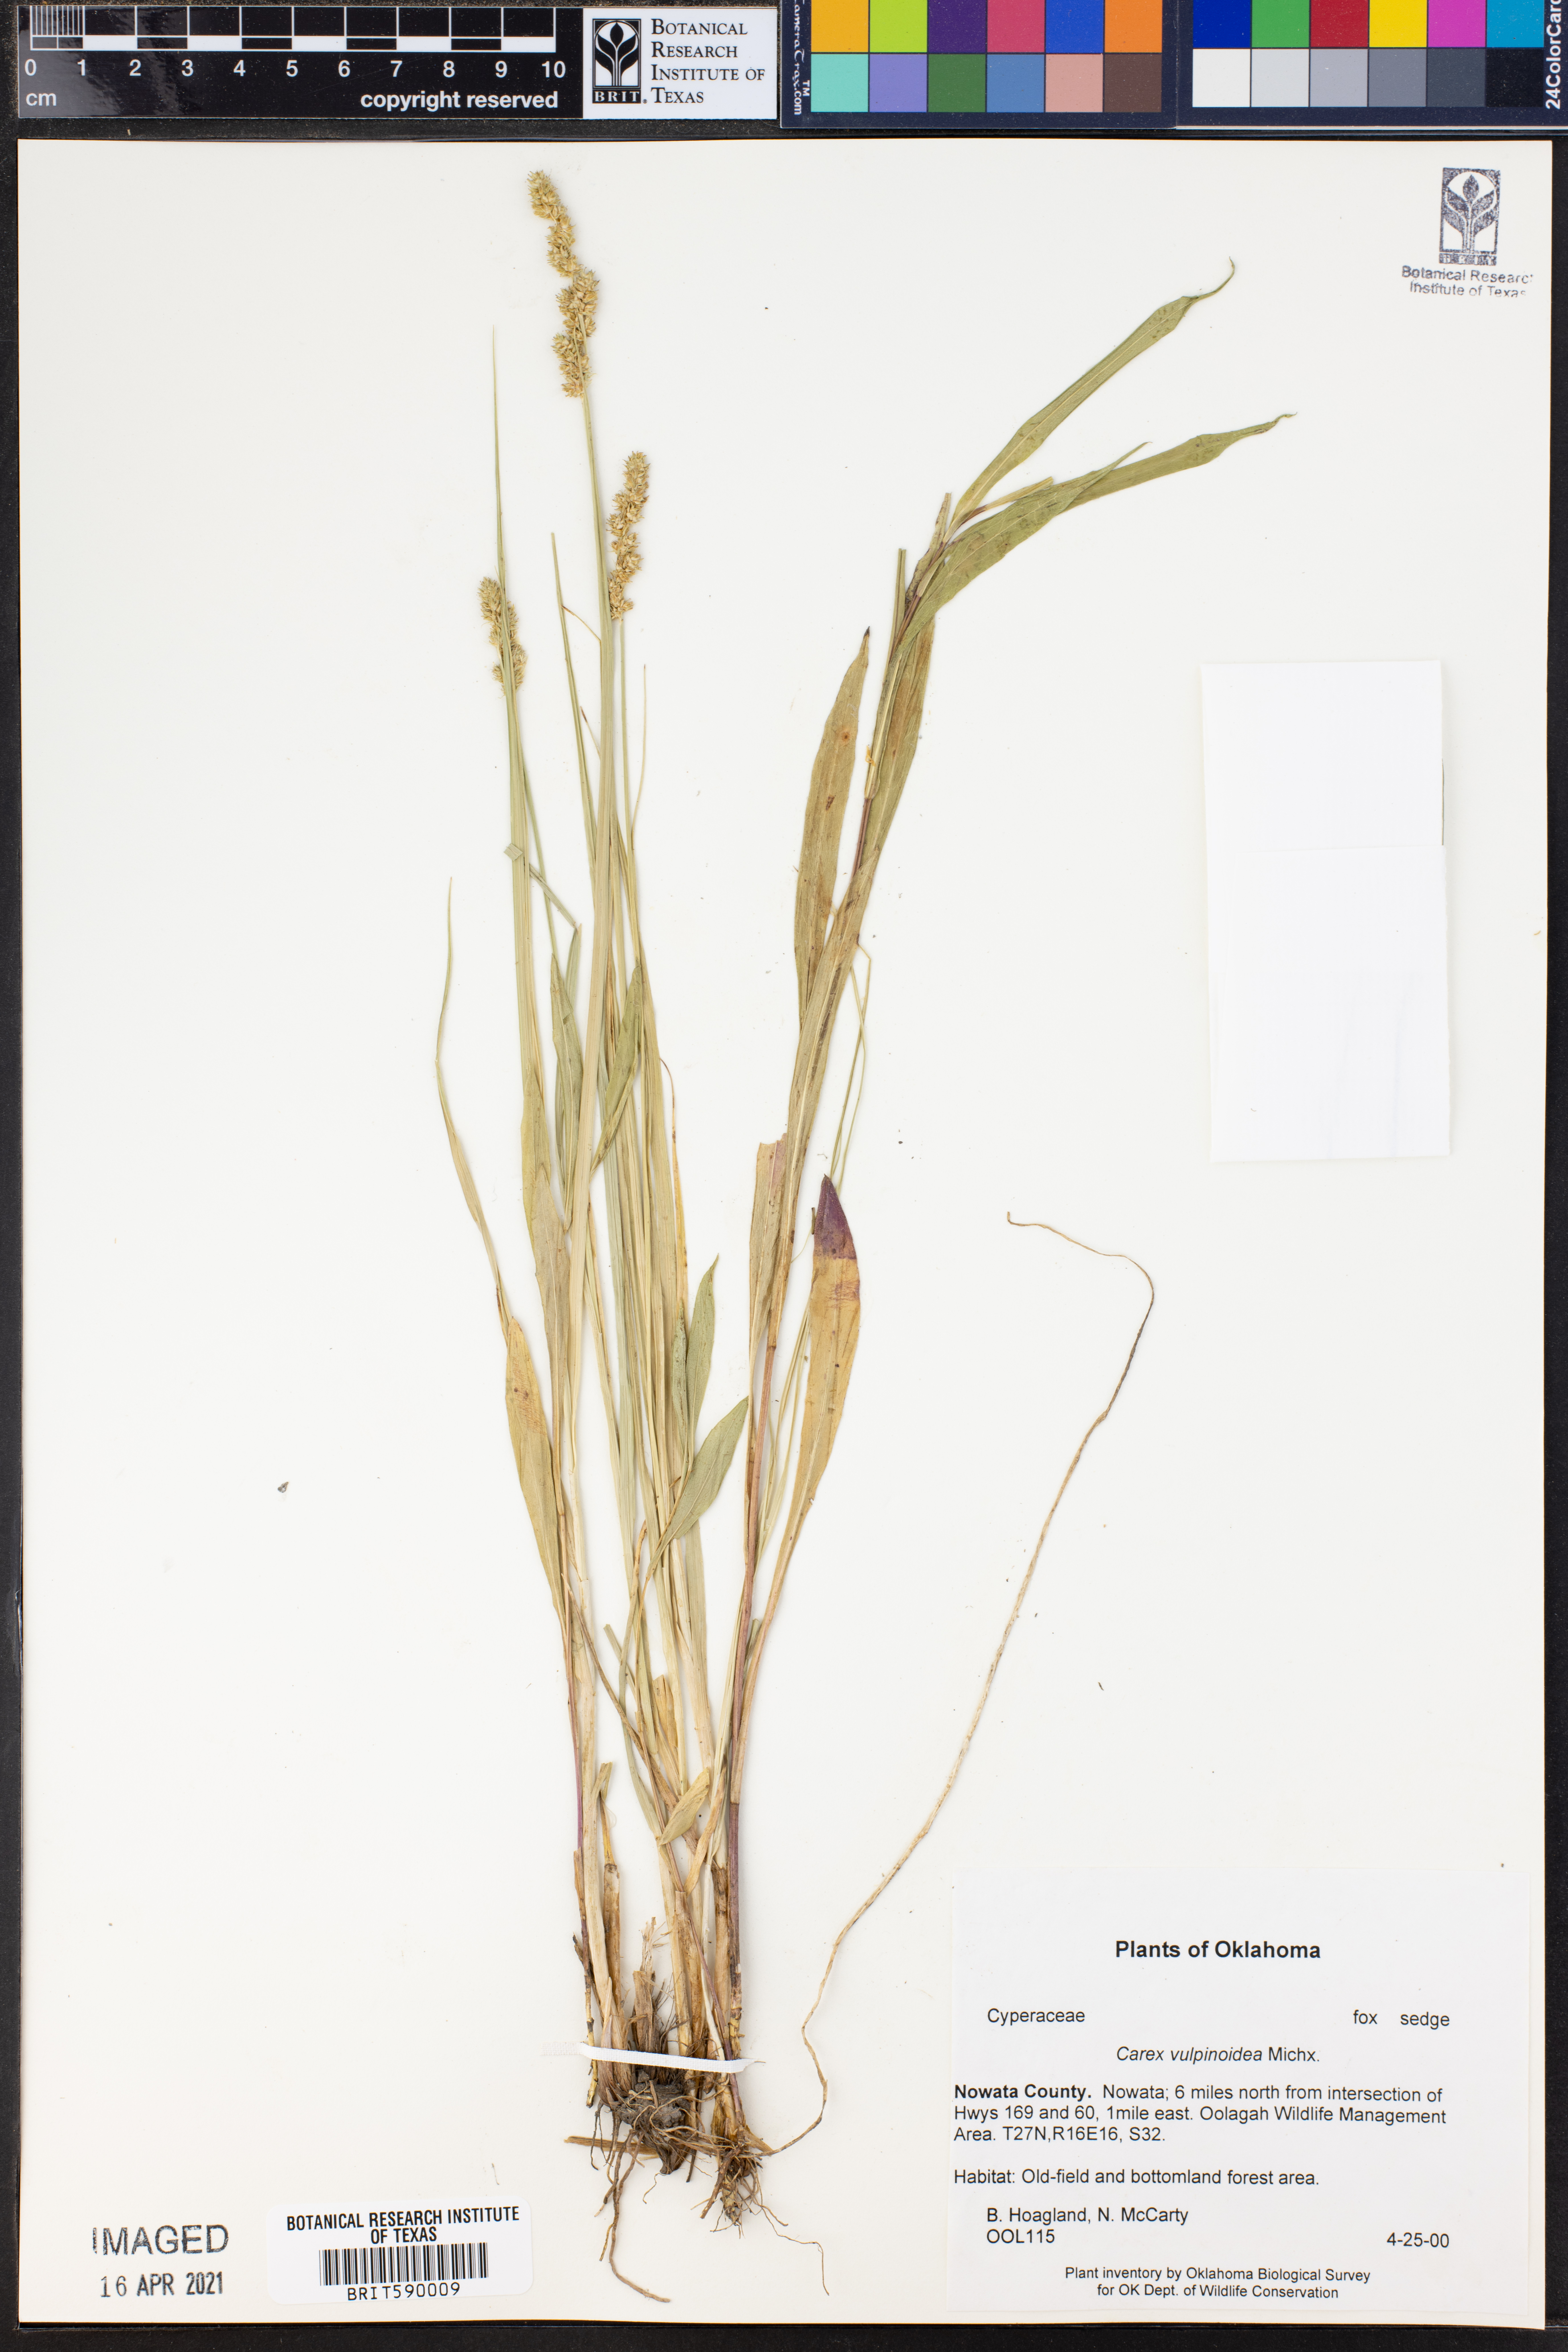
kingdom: Plantae
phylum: Tracheophyta
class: Liliopsida
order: Poales
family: Cyperaceae
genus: Carex
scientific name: Carex vulpinoidea
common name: American fox-sedge
